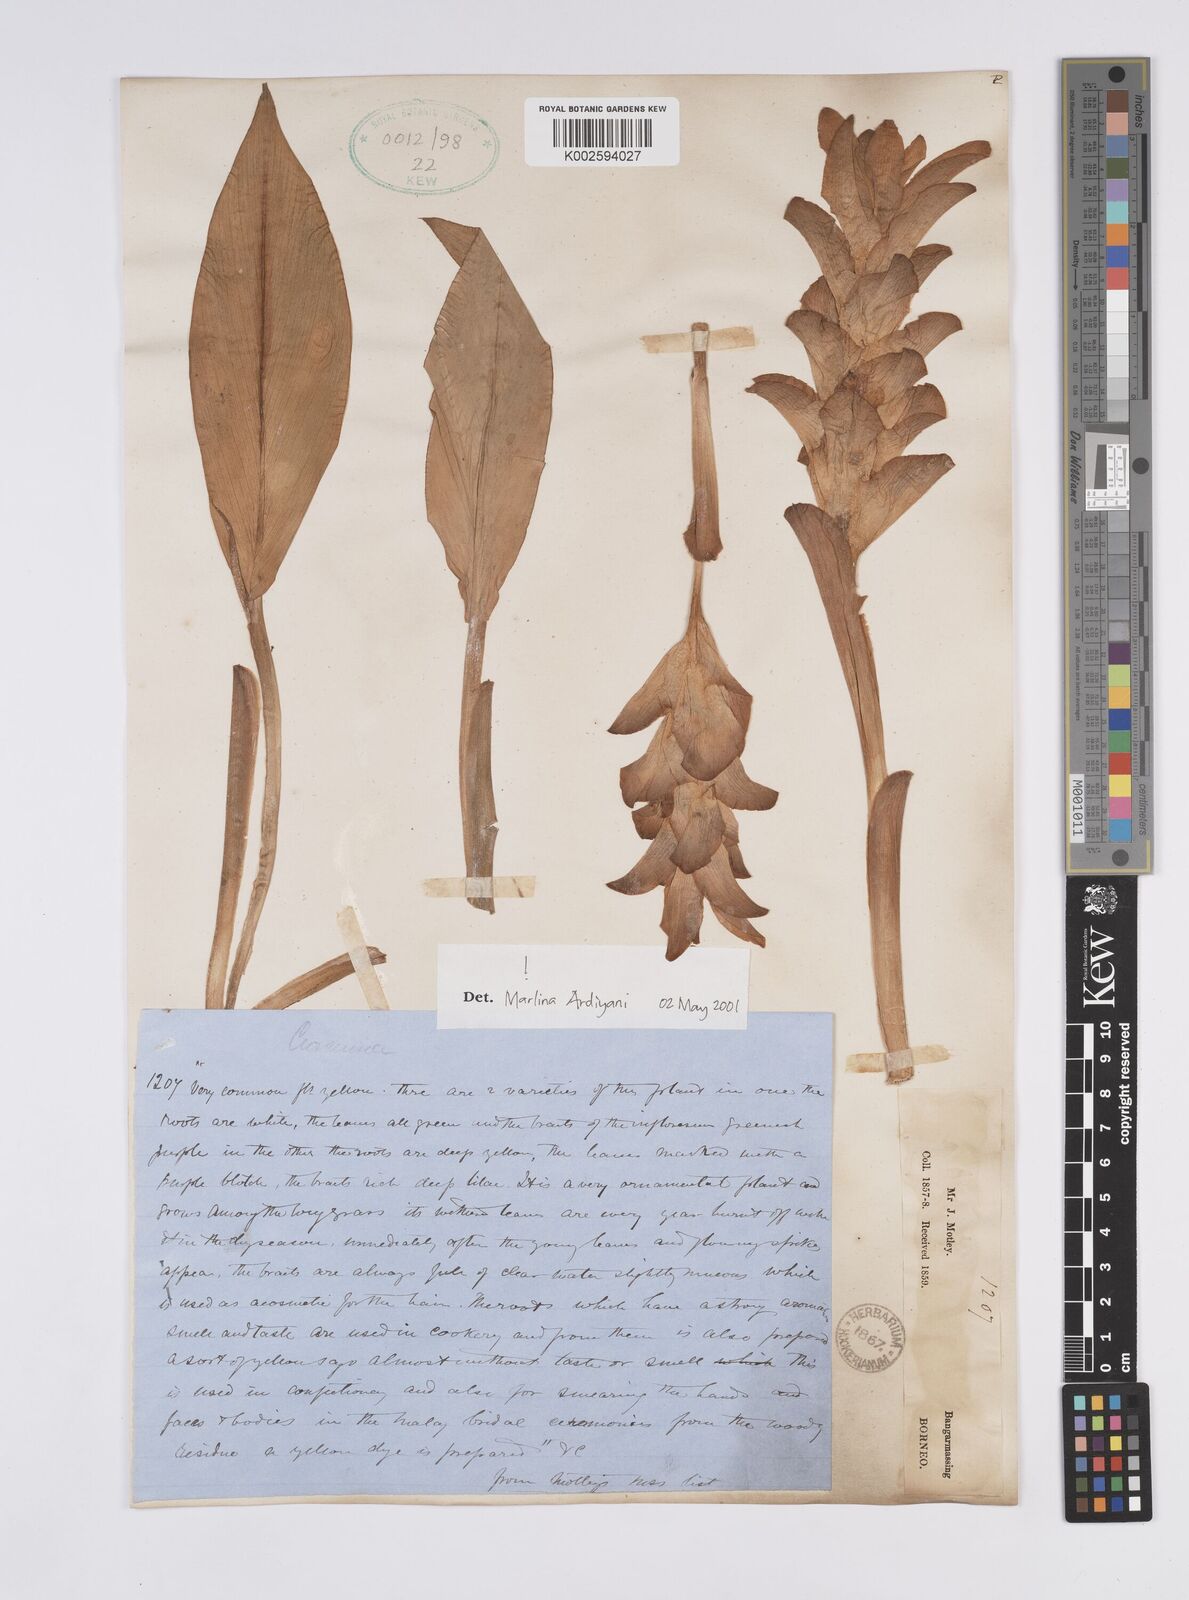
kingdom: Plantae
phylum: Tracheophyta
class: Liliopsida
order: Zingiberales
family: Zingiberaceae
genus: Curcuma
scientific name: Curcuma
